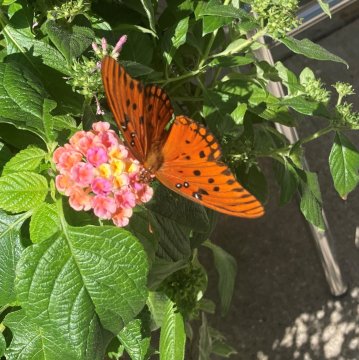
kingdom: Animalia
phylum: Arthropoda
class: Insecta
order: Lepidoptera
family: Nymphalidae
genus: Dione
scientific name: Dione vanillae
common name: Gulf Fritillary
